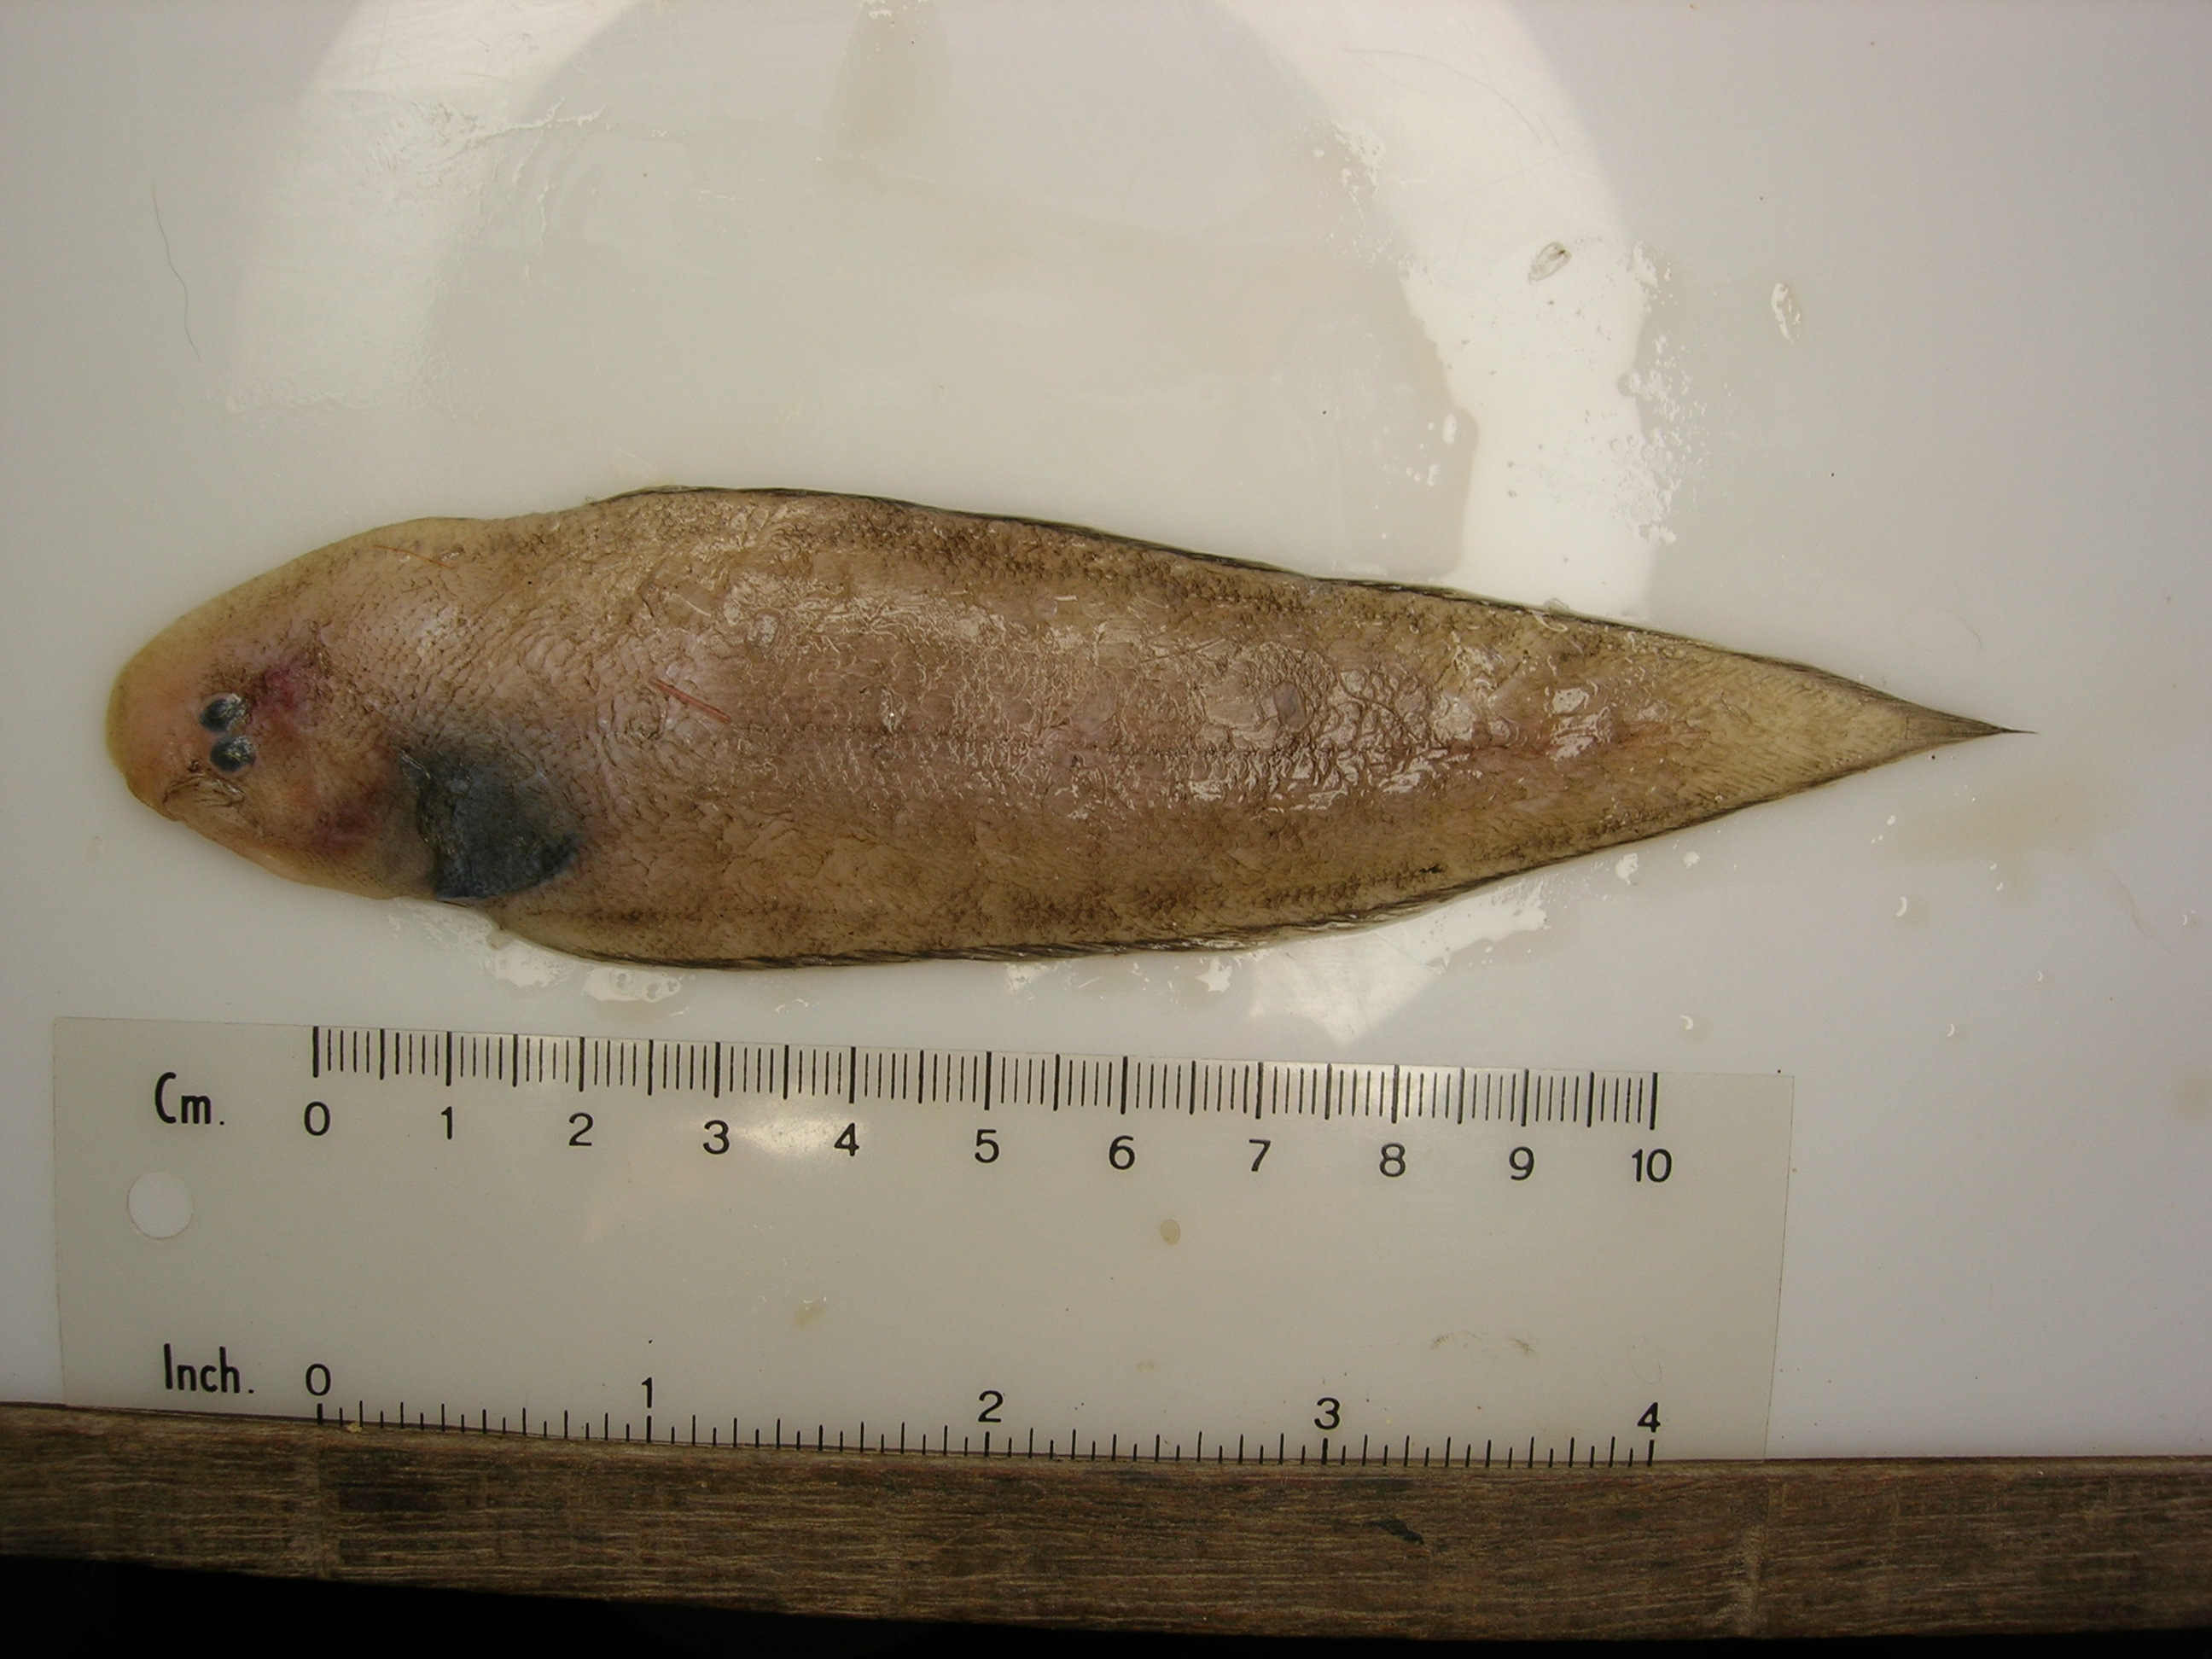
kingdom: Animalia
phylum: Chordata
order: Pleuronectiformes
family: Cynoglossidae
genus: Cynoglossus
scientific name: Cynoglossus
